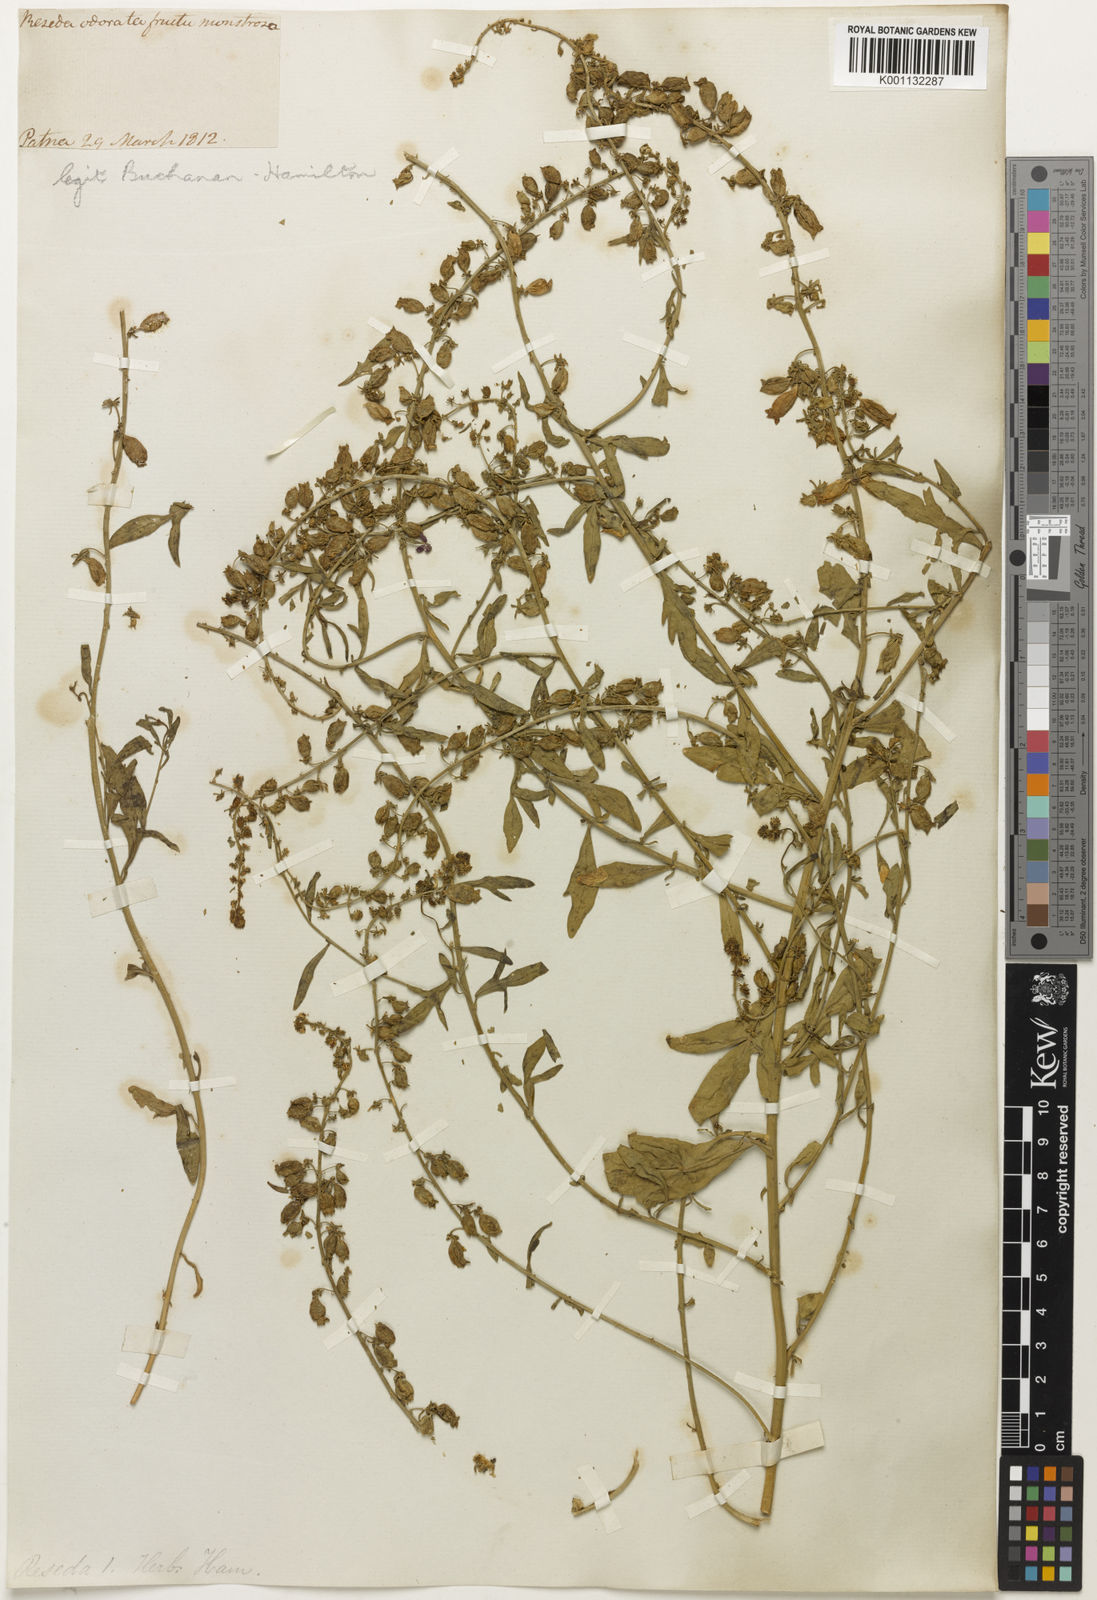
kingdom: Plantae
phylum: Tracheophyta
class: Magnoliopsida
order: Brassicales
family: Resedaceae
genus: Reseda
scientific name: Reseda
